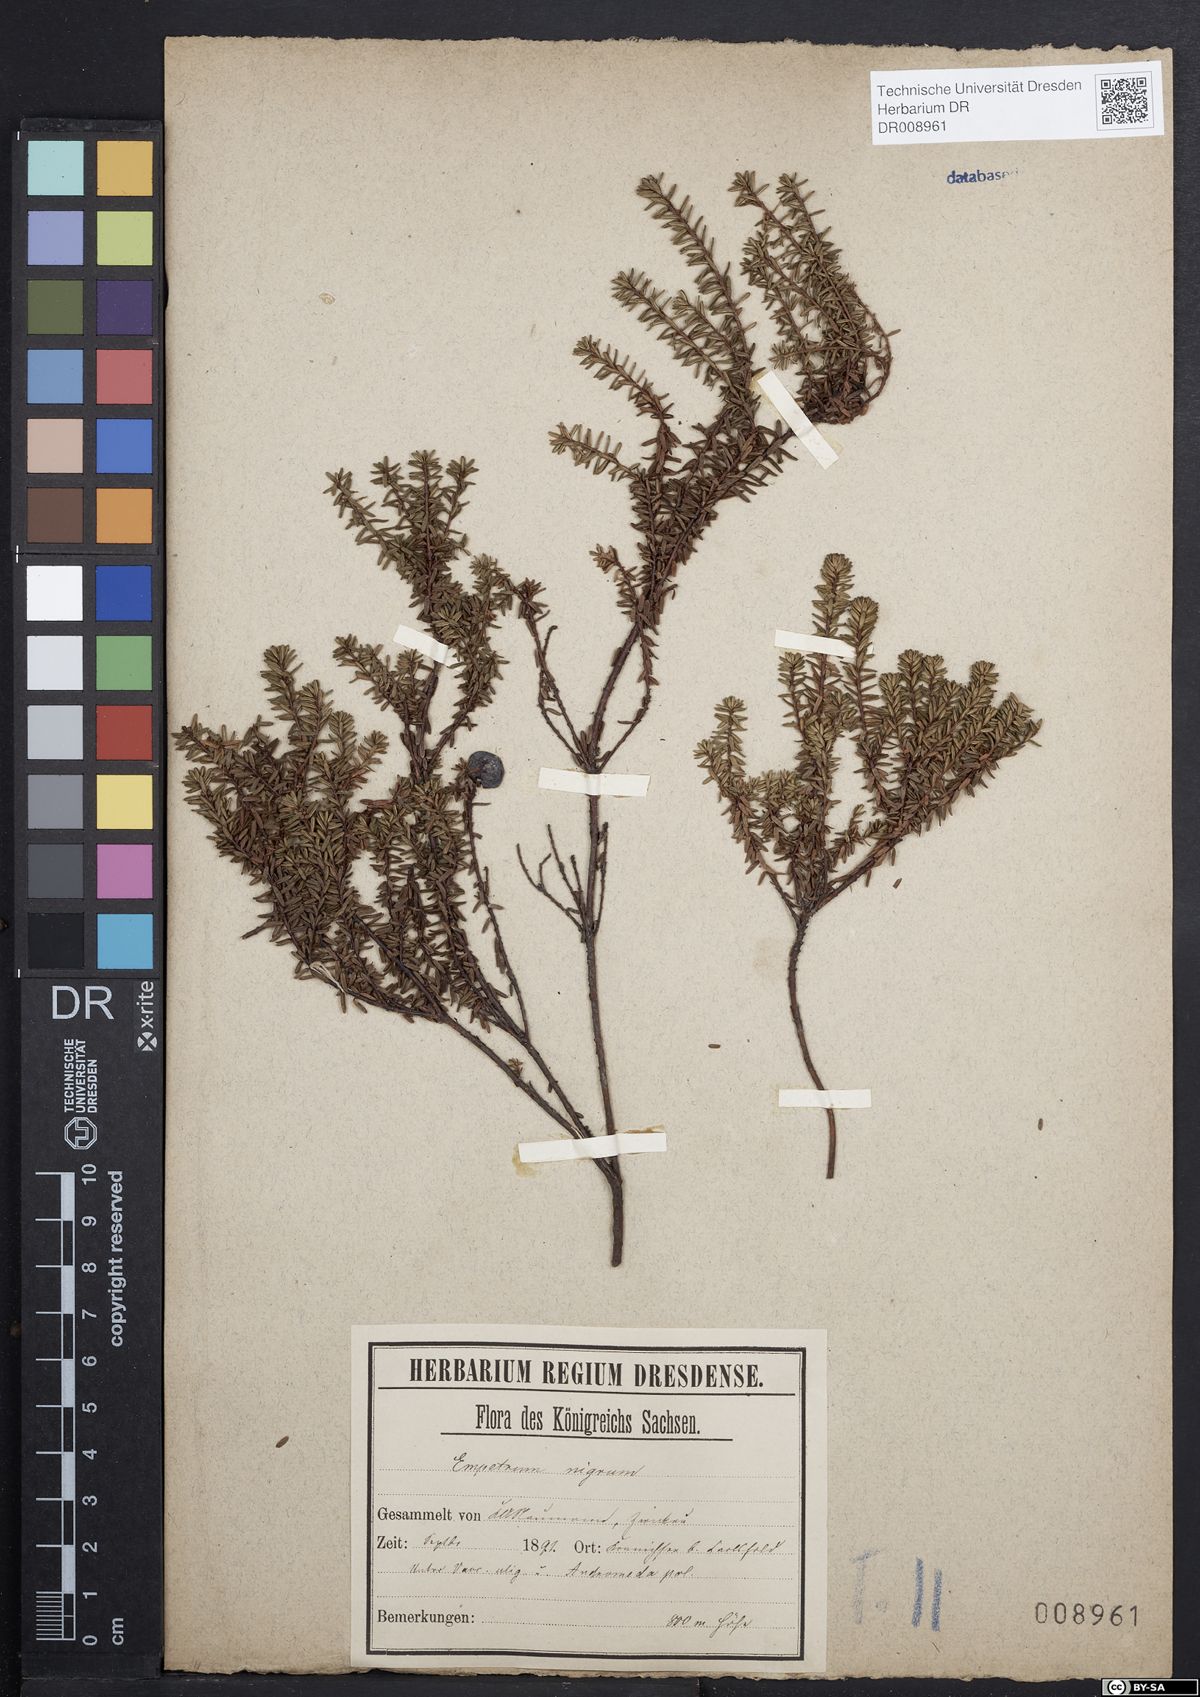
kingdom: Plantae
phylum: Tracheophyta
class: Magnoliopsida
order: Ericales
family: Ericaceae
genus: Empetrum
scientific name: Empetrum nigrum
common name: Black crowberry
